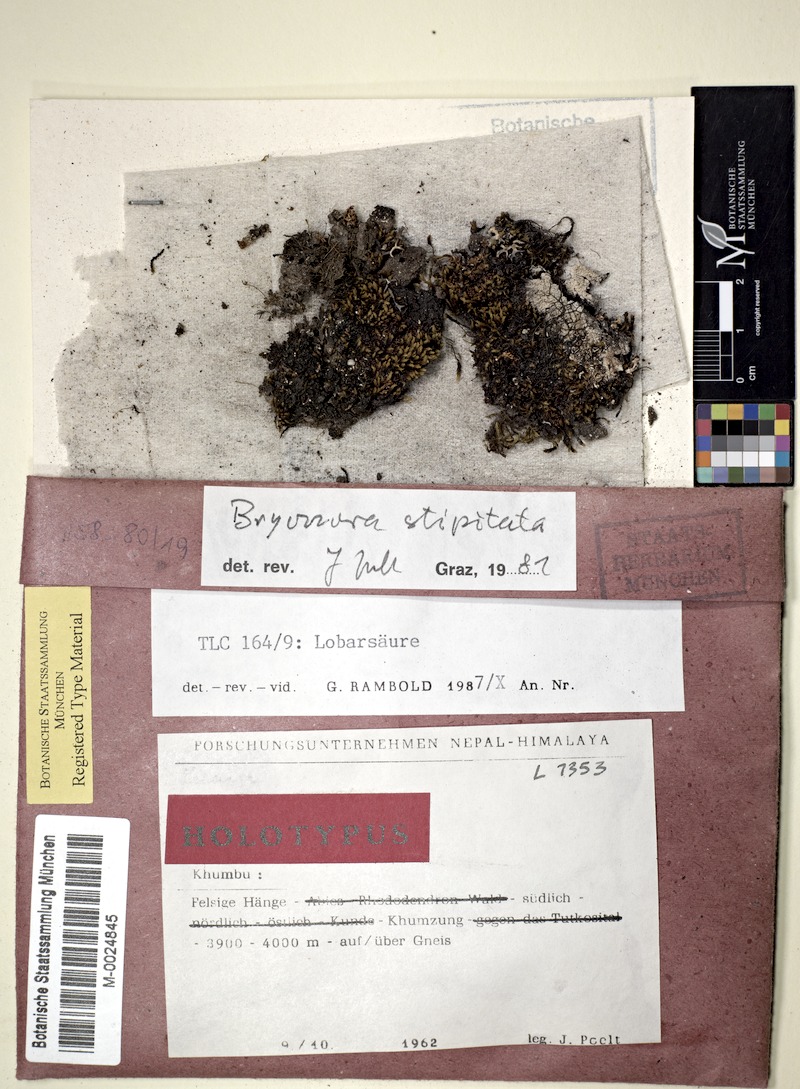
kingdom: Fungi
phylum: Ascomycota
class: Lecanoromycetes
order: Lecanorales
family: Lecanoraceae
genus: Bryonora
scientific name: Bryonora stipitata
